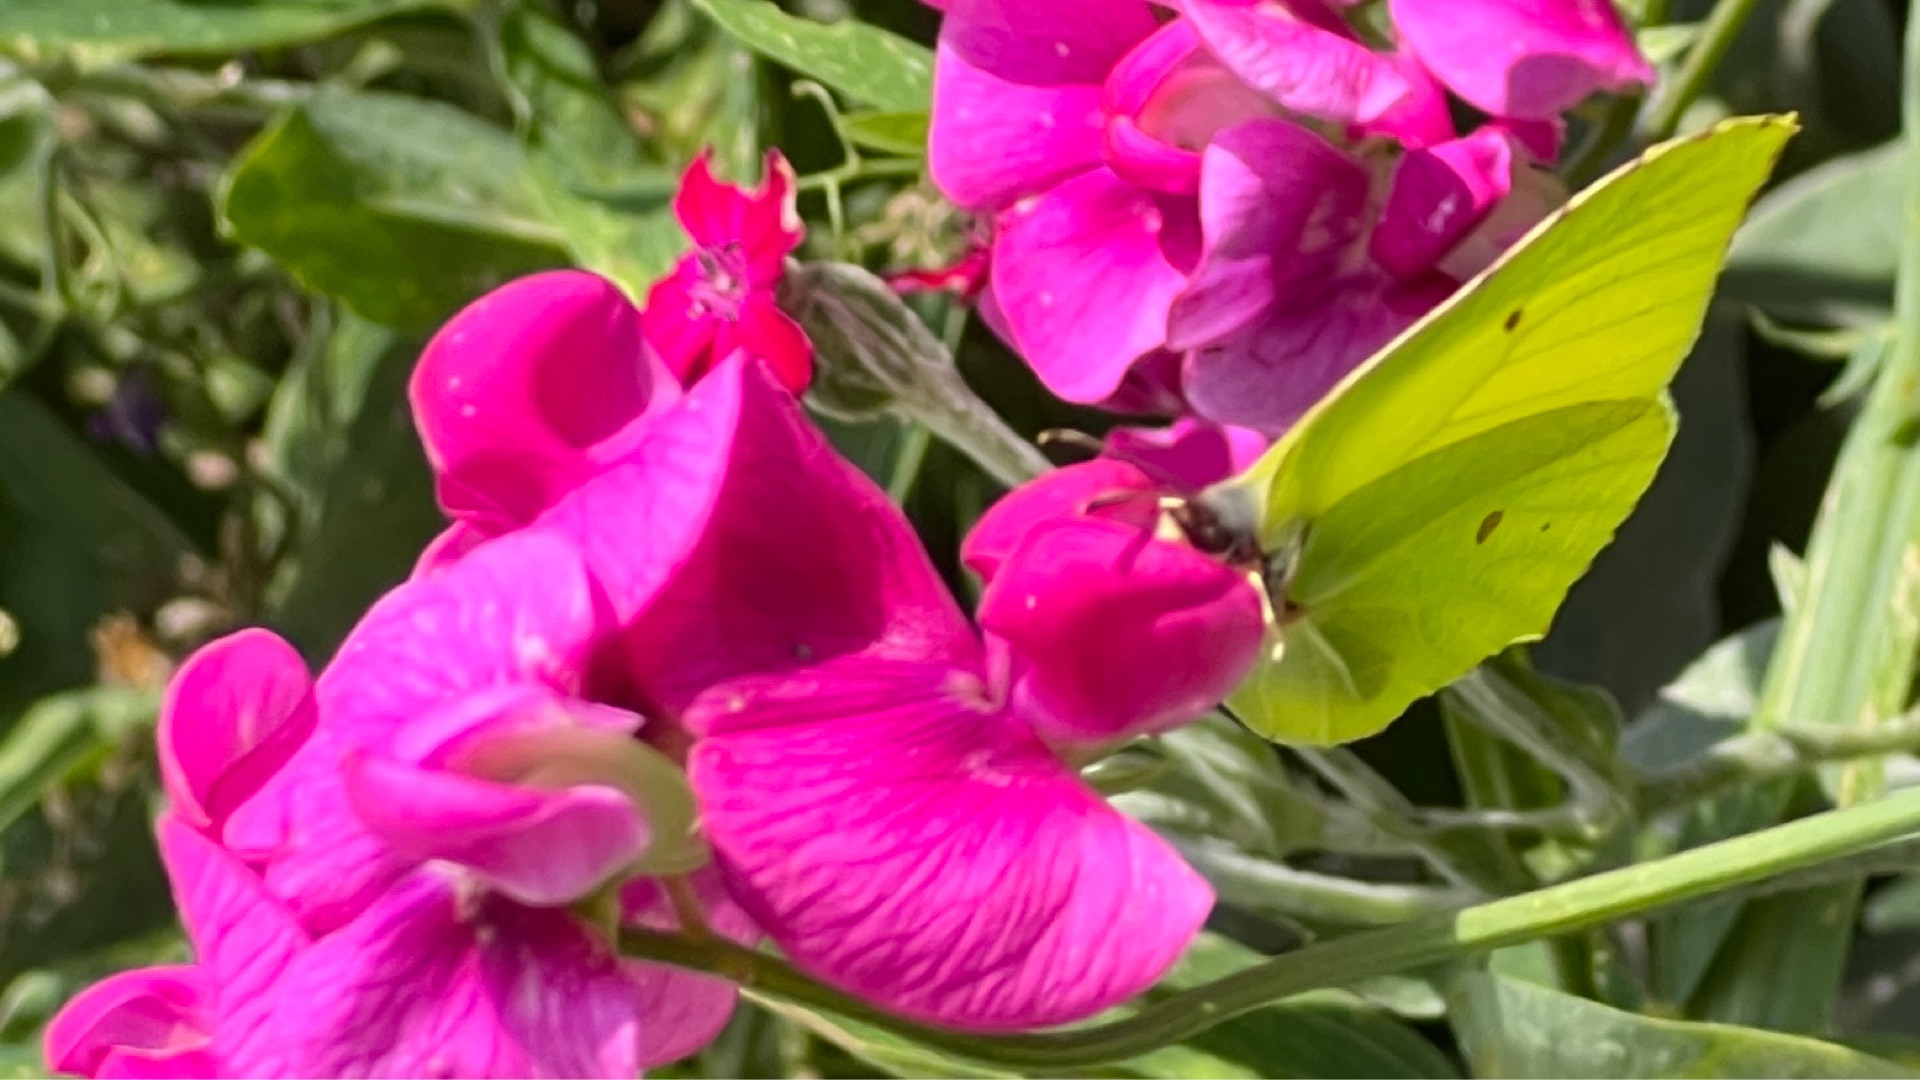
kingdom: Animalia
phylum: Arthropoda
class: Insecta
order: Lepidoptera
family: Pieridae
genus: Gonepteryx
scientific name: Gonepteryx rhamni
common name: Citronsommerfugl
